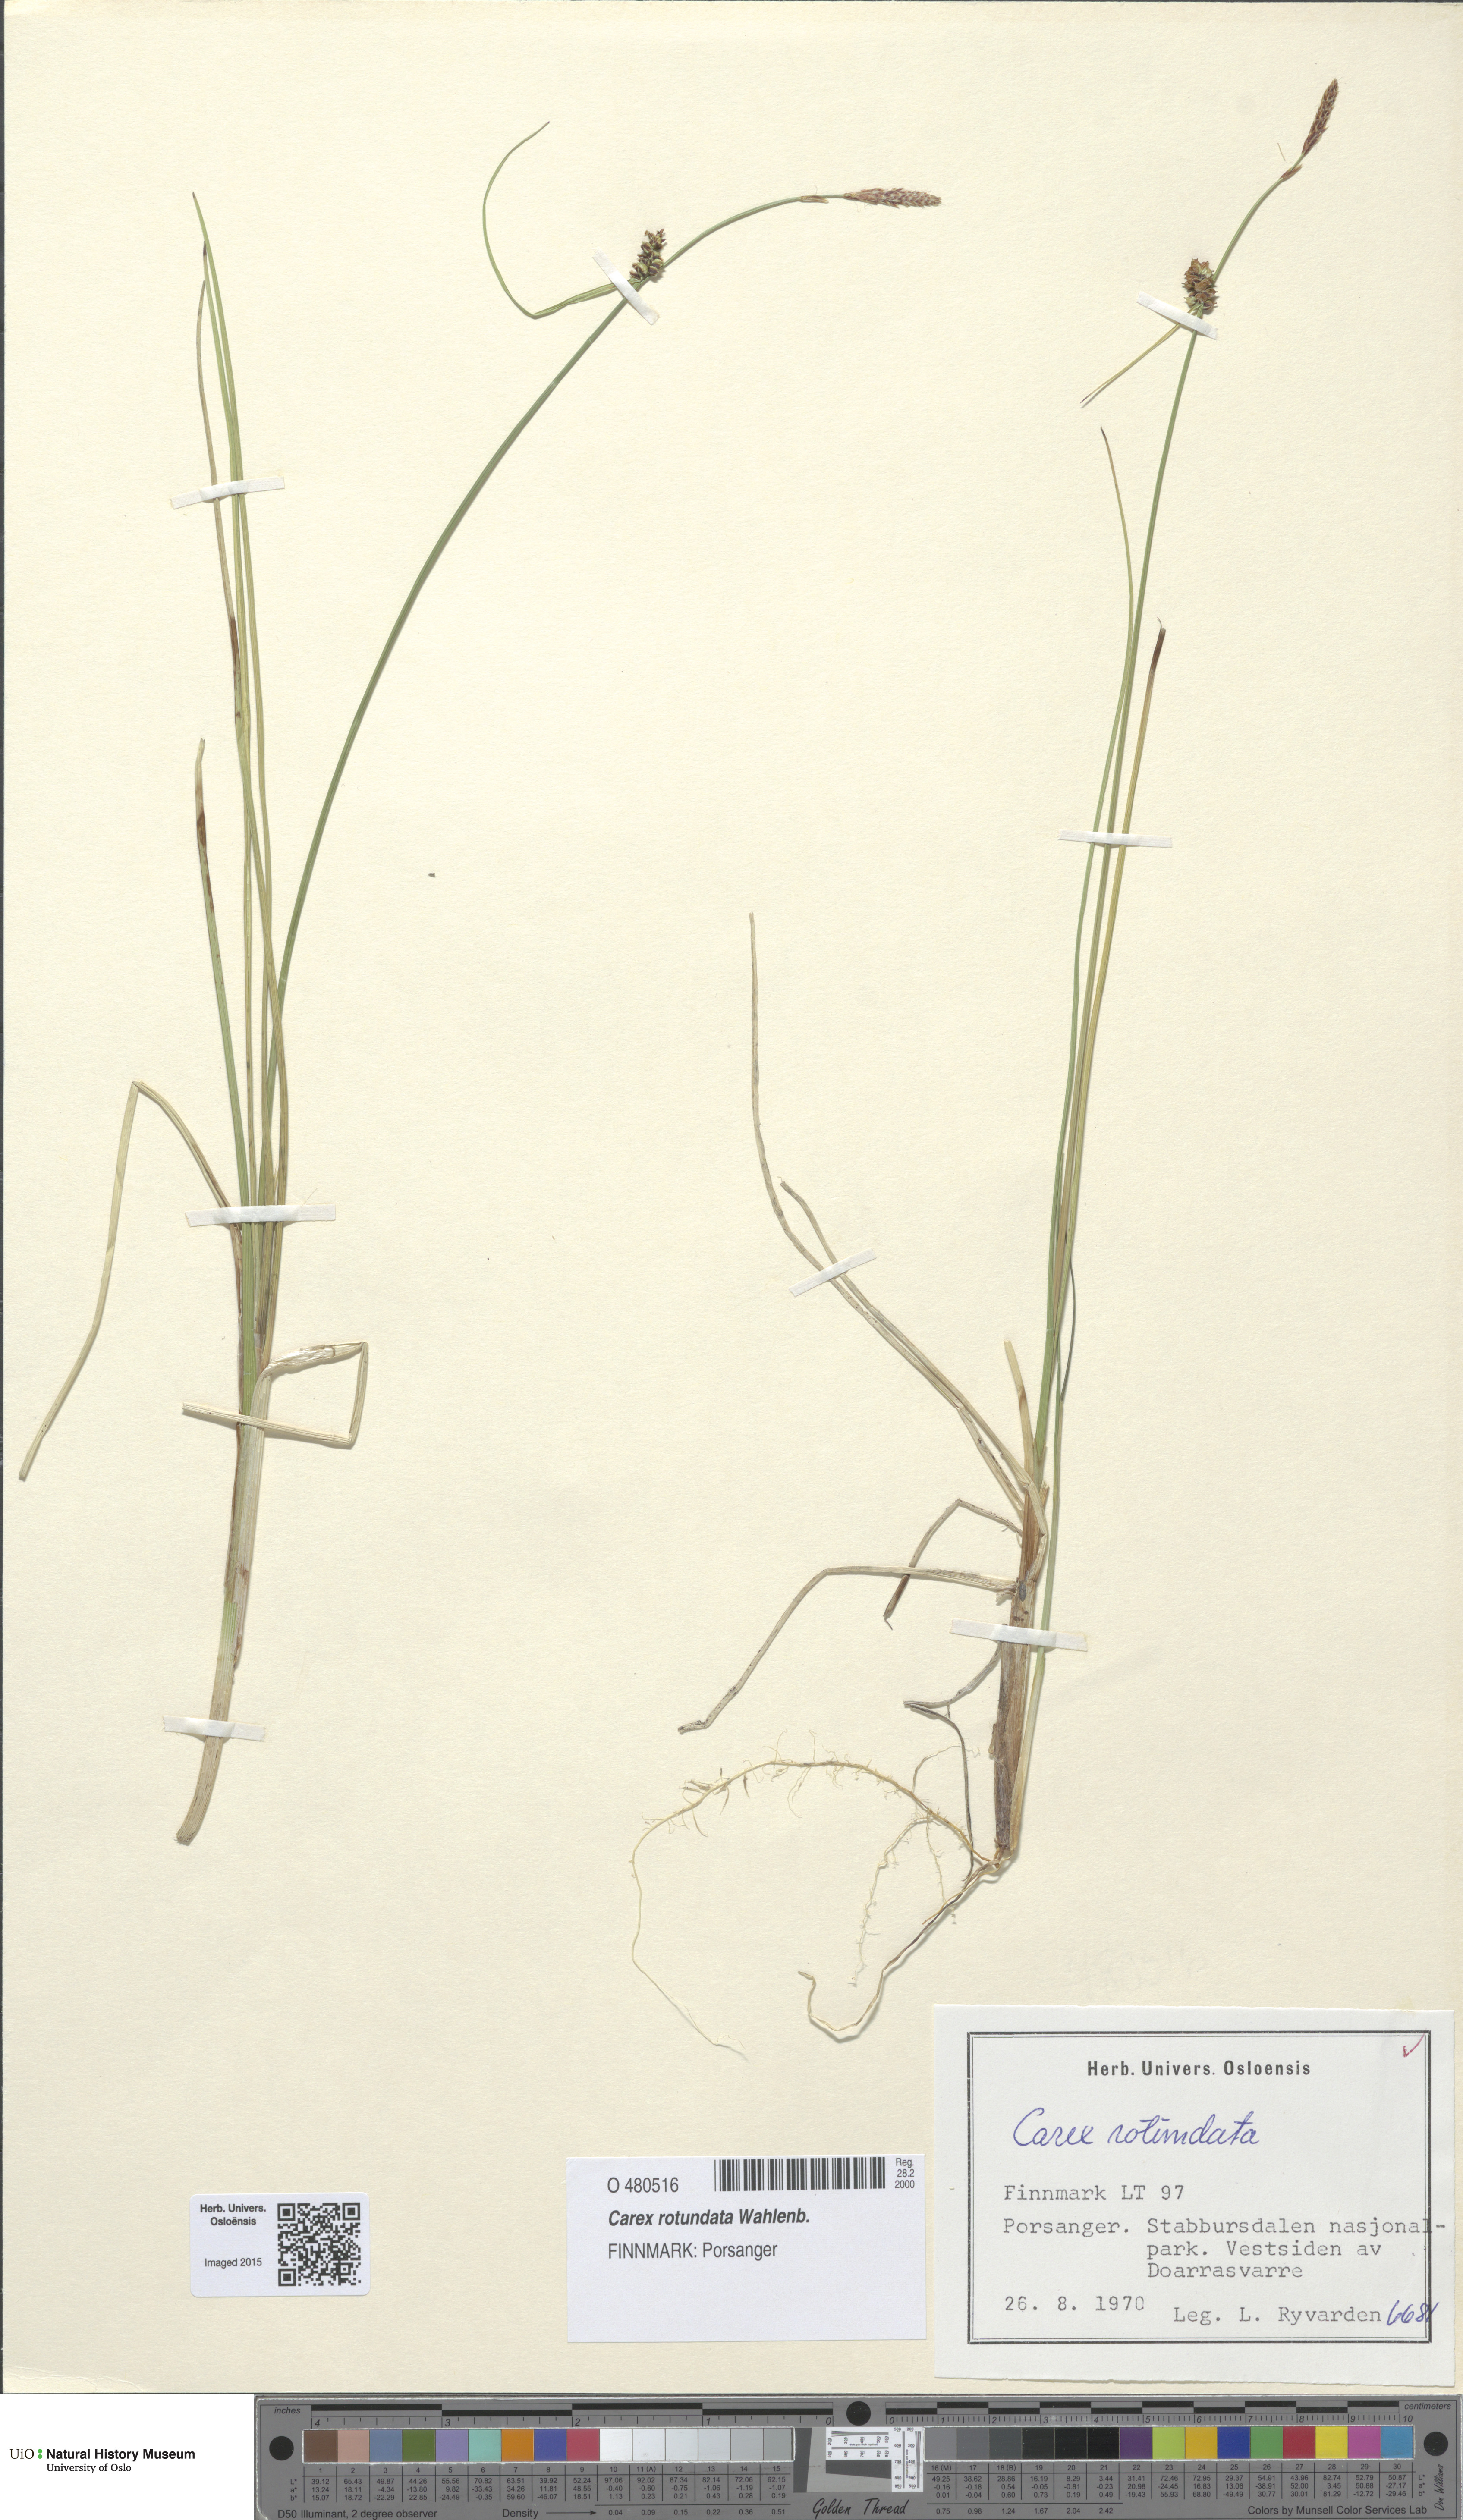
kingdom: Plantae
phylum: Tracheophyta
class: Liliopsida
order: Poales
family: Cyperaceae
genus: Carex
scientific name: Carex rotundata
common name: Round-fruited sedge
